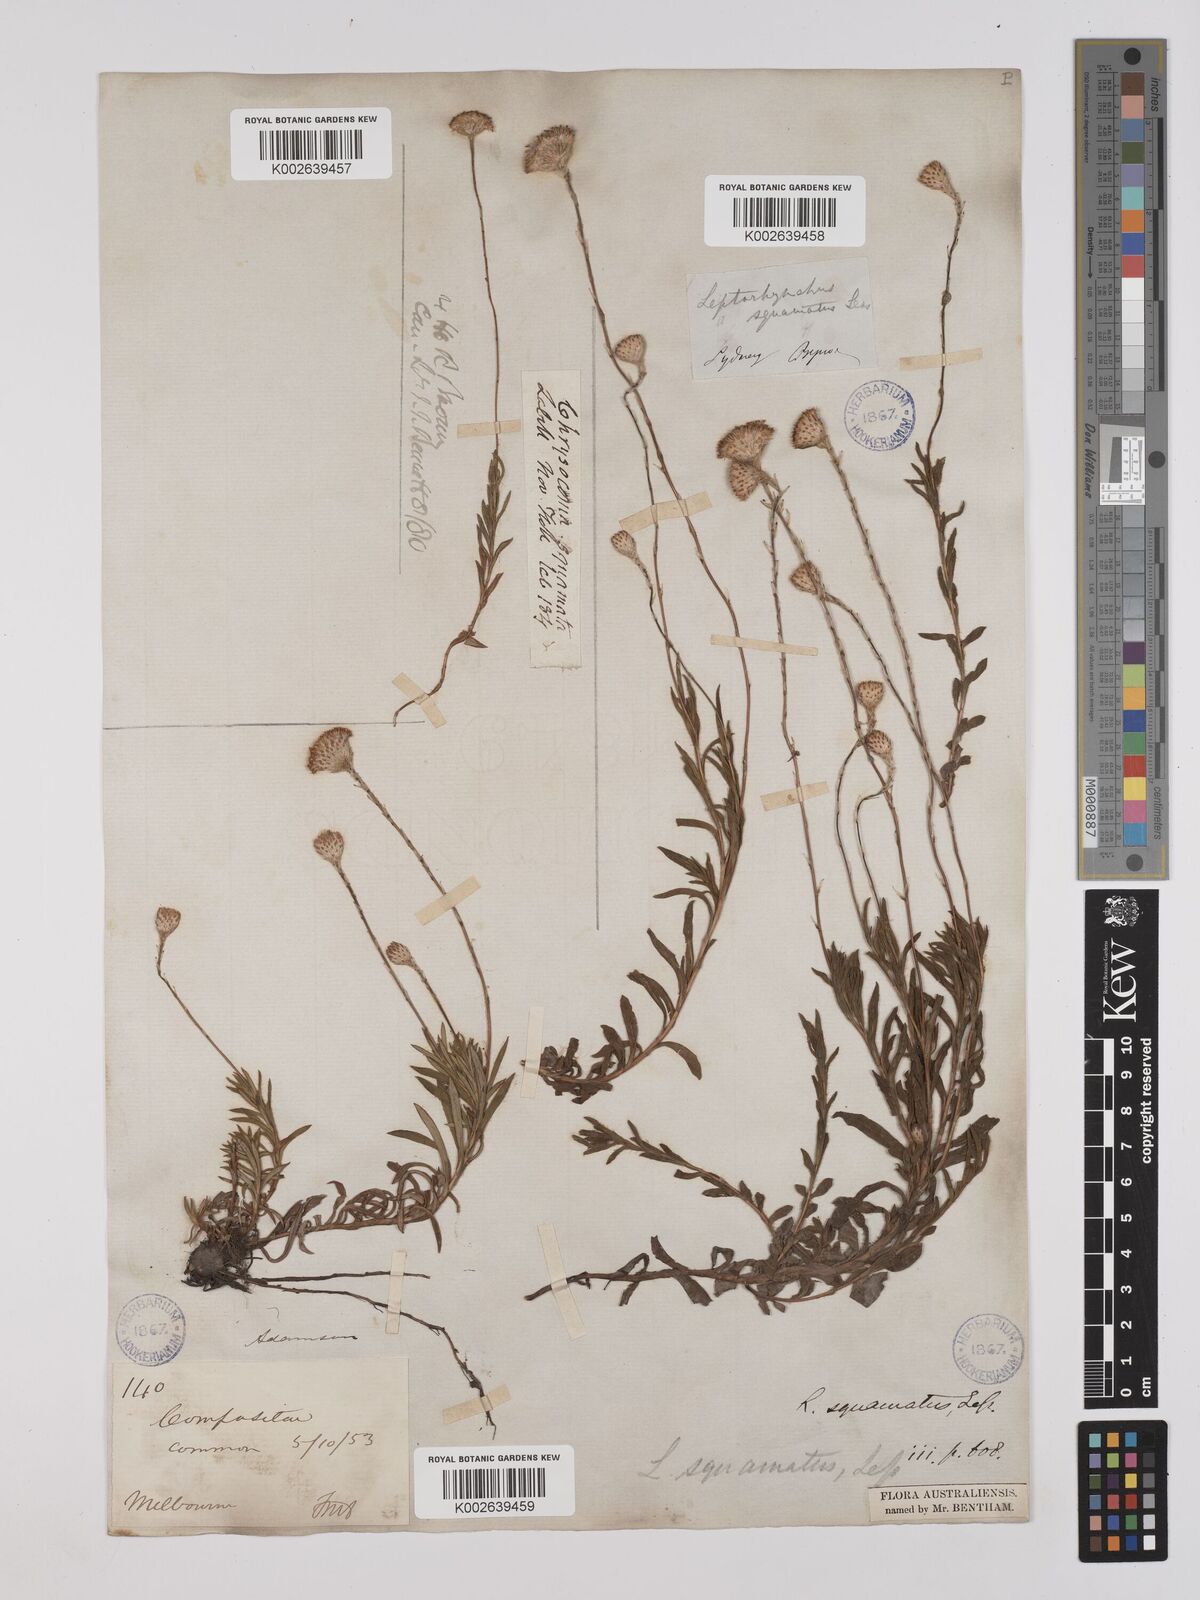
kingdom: Plantae
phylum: Tracheophyta
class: Magnoliopsida
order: Asterales
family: Asteraceae
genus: Leptorhynchos
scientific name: Leptorhynchos squamatus
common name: Scaly-buttons
